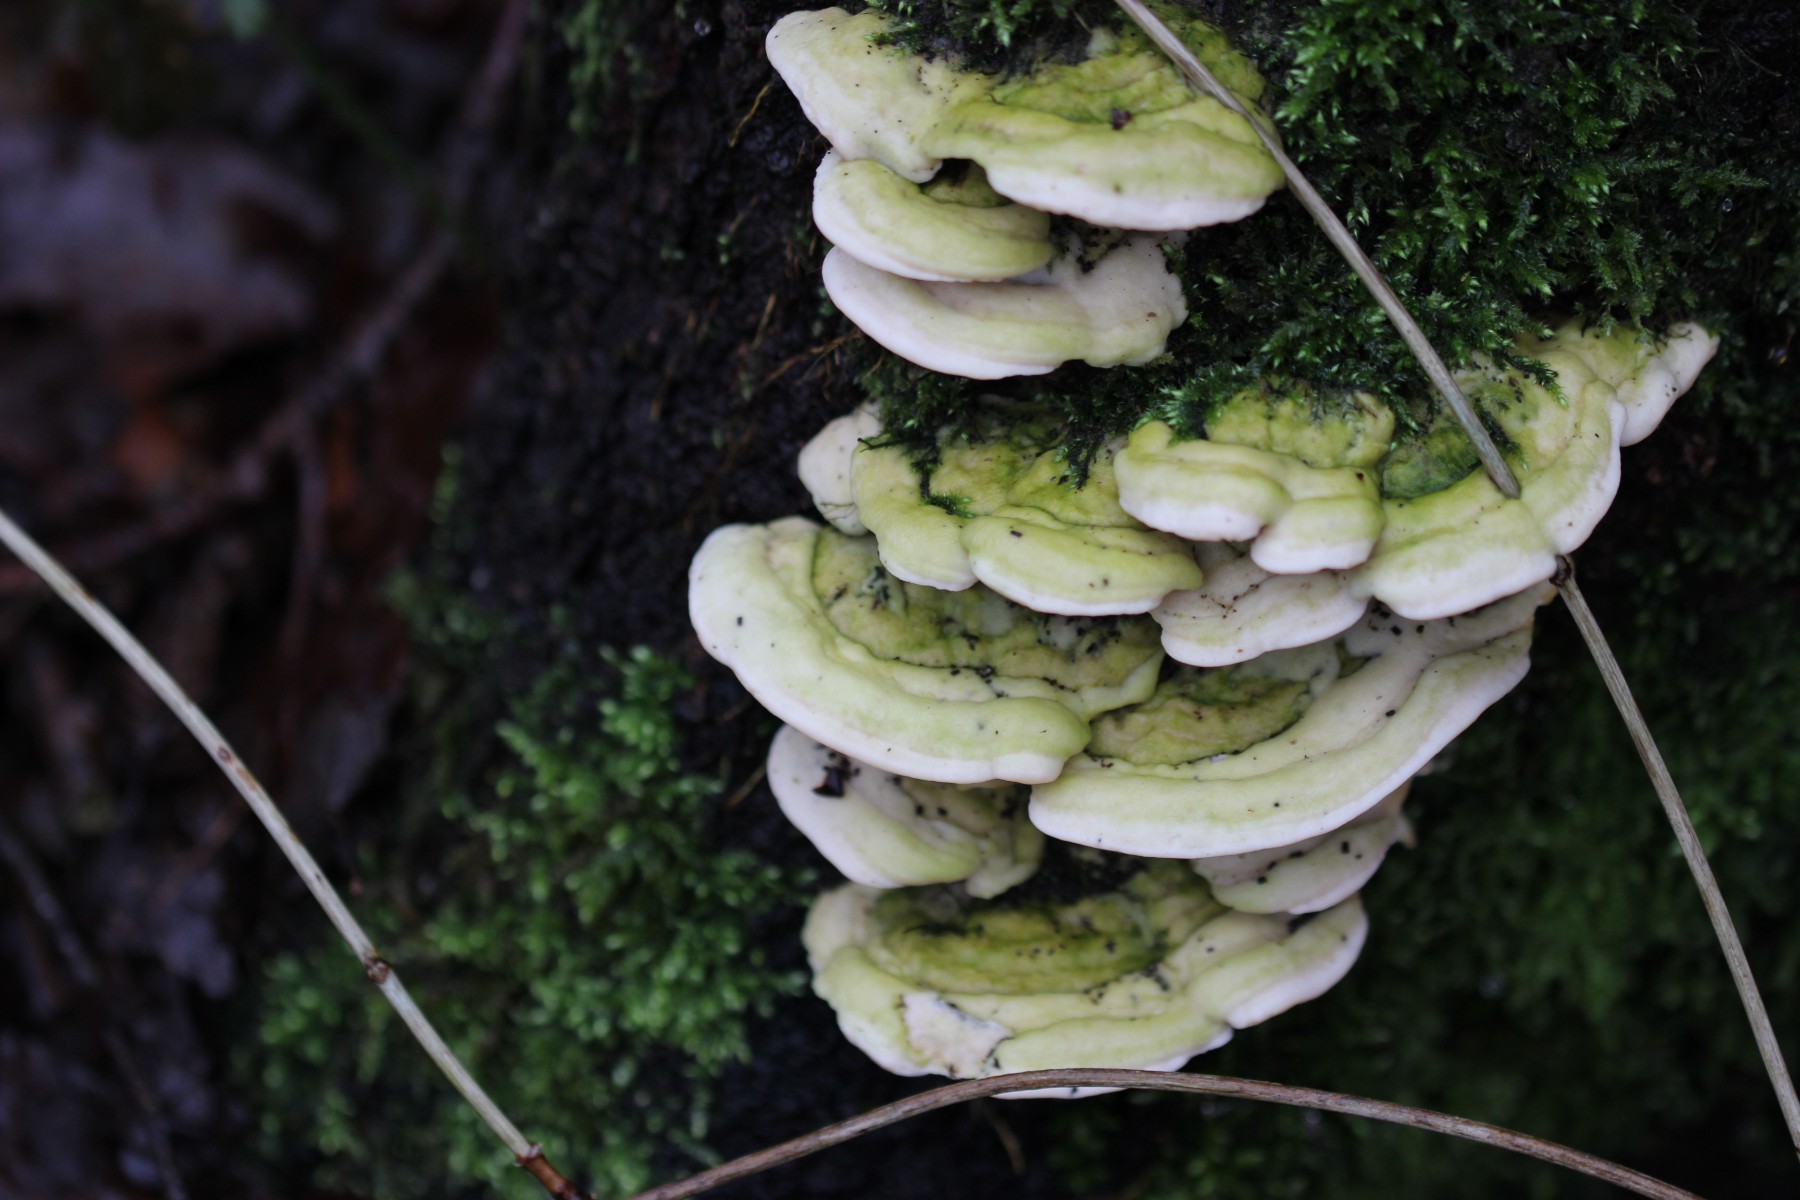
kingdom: Fungi
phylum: Basidiomycota
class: Agaricomycetes
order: Polyporales
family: Polyporaceae
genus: Trametes
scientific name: Trametes hirsuta
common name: håret læderporesvamp
